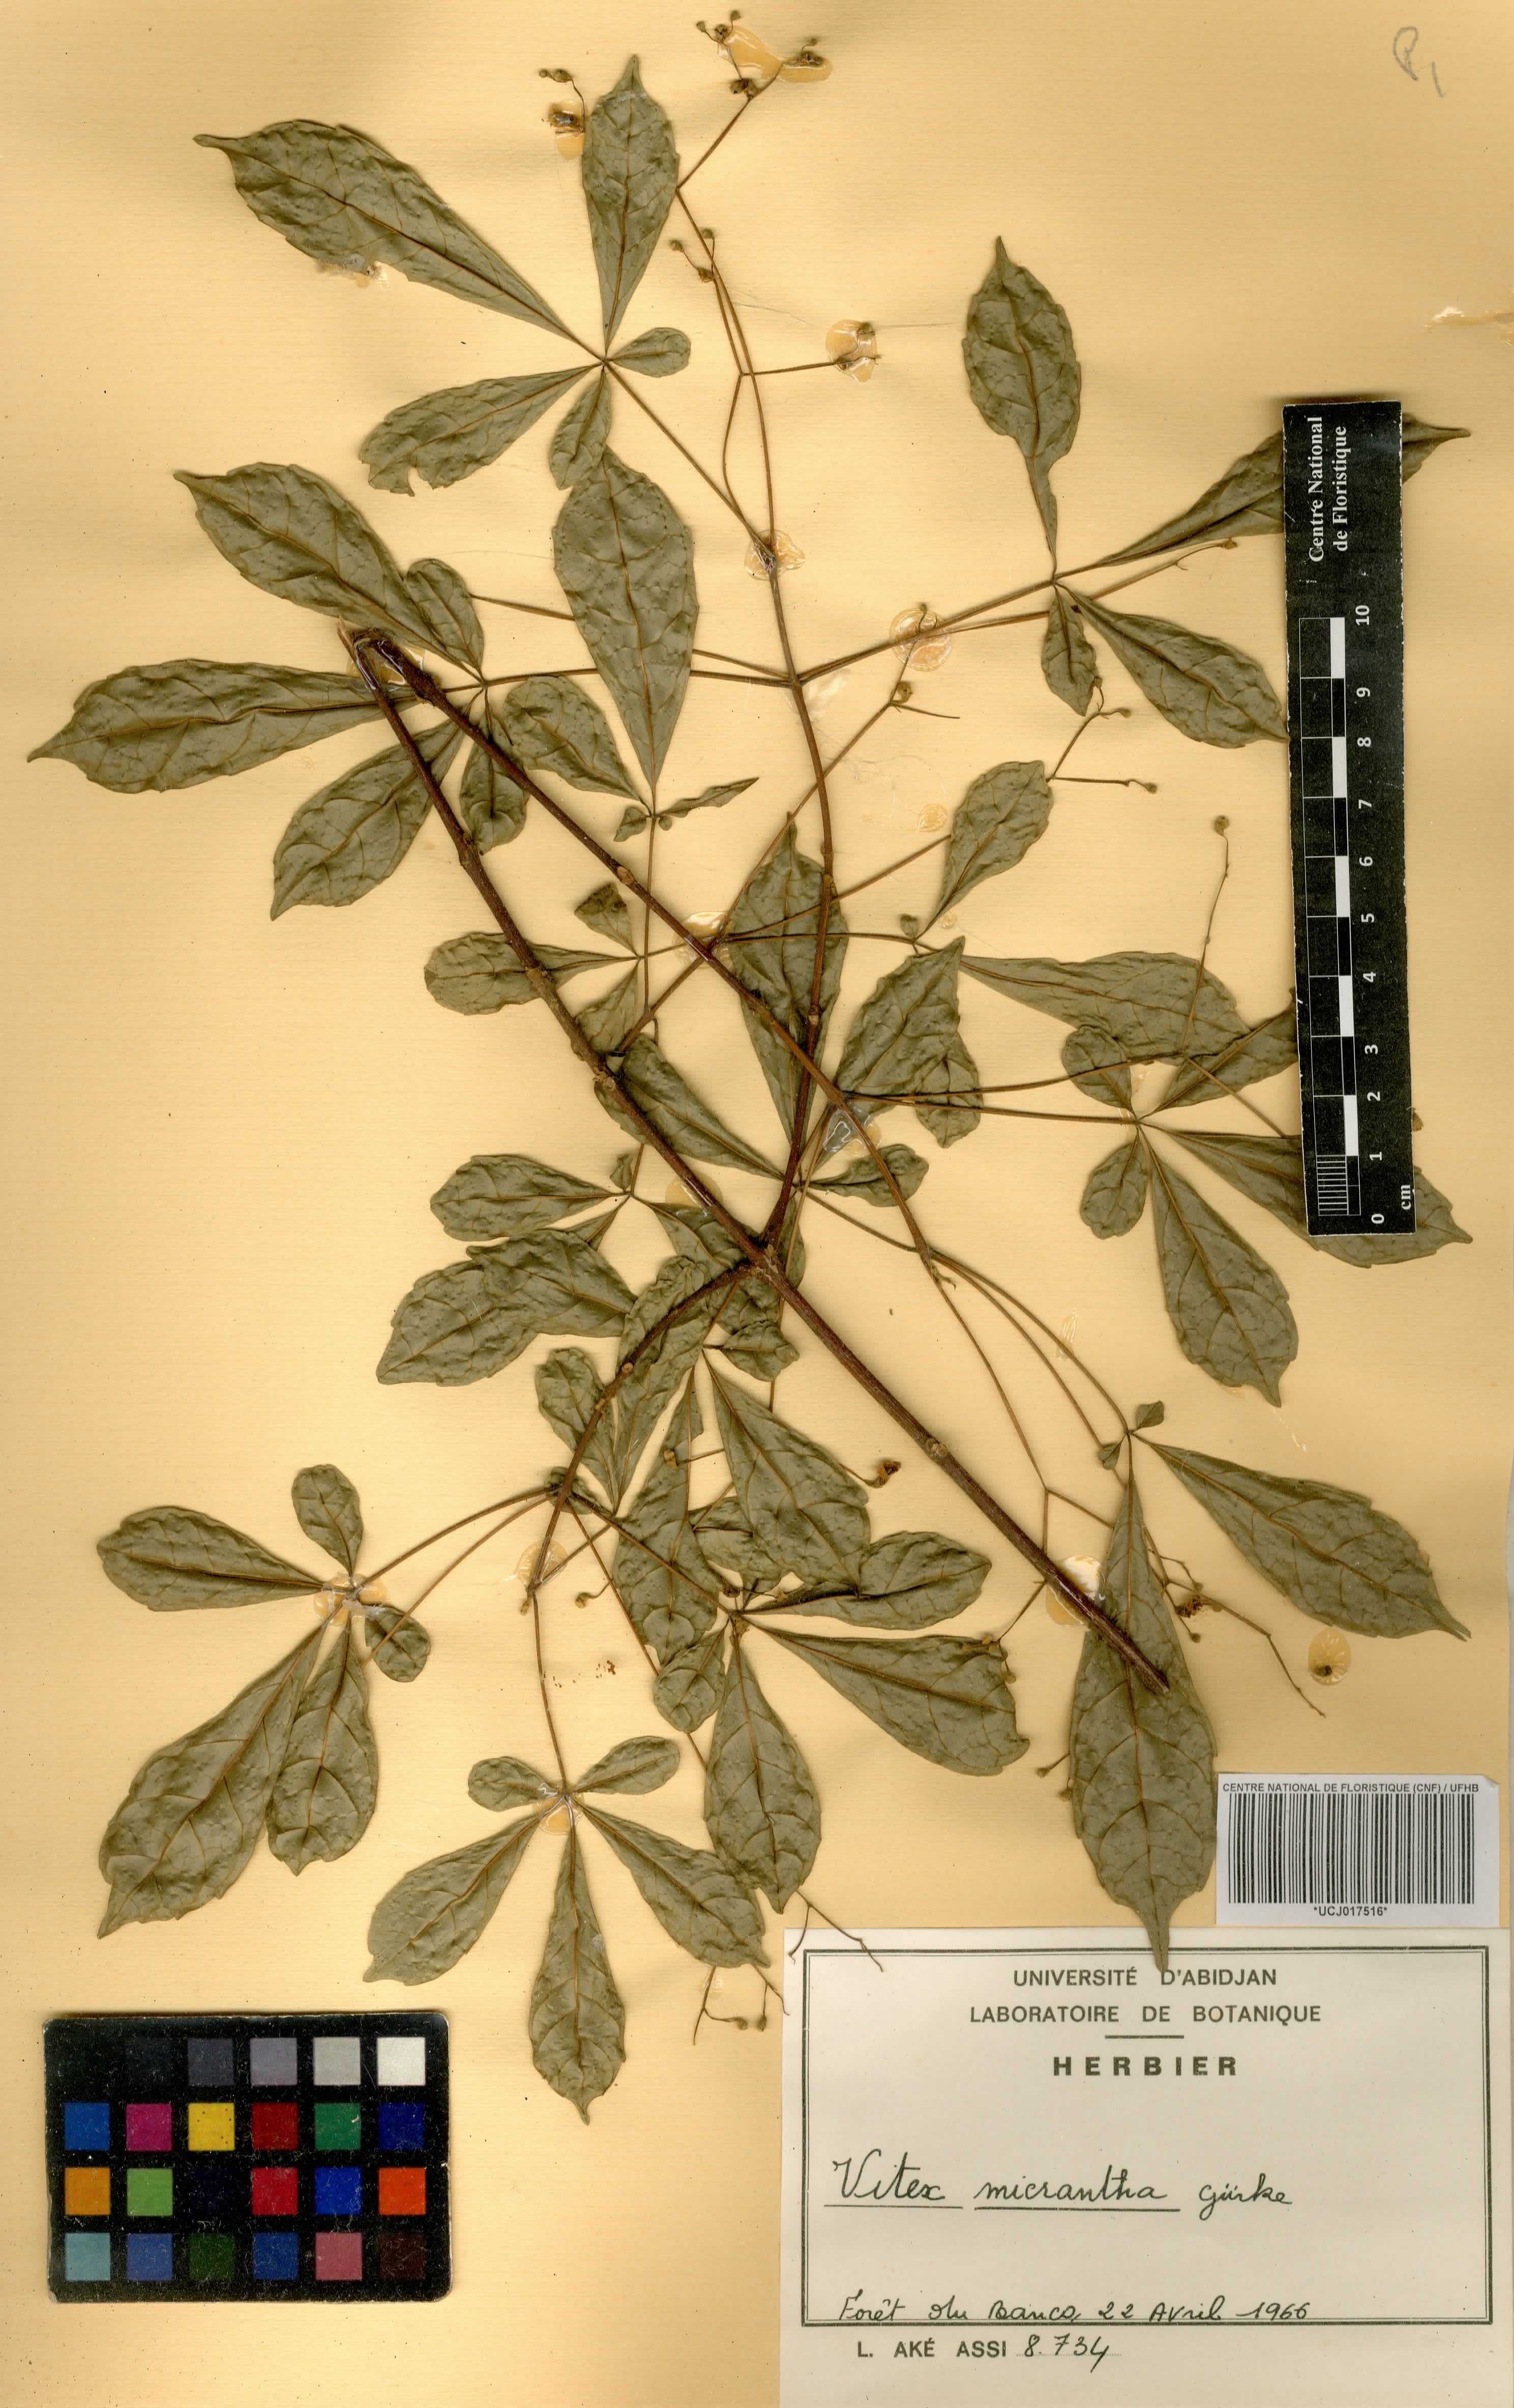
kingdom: Plantae
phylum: Tracheophyta
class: Magnoliopsida
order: Lamiales
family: Lamiaceae
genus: Vitex
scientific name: Vitex micrantha
